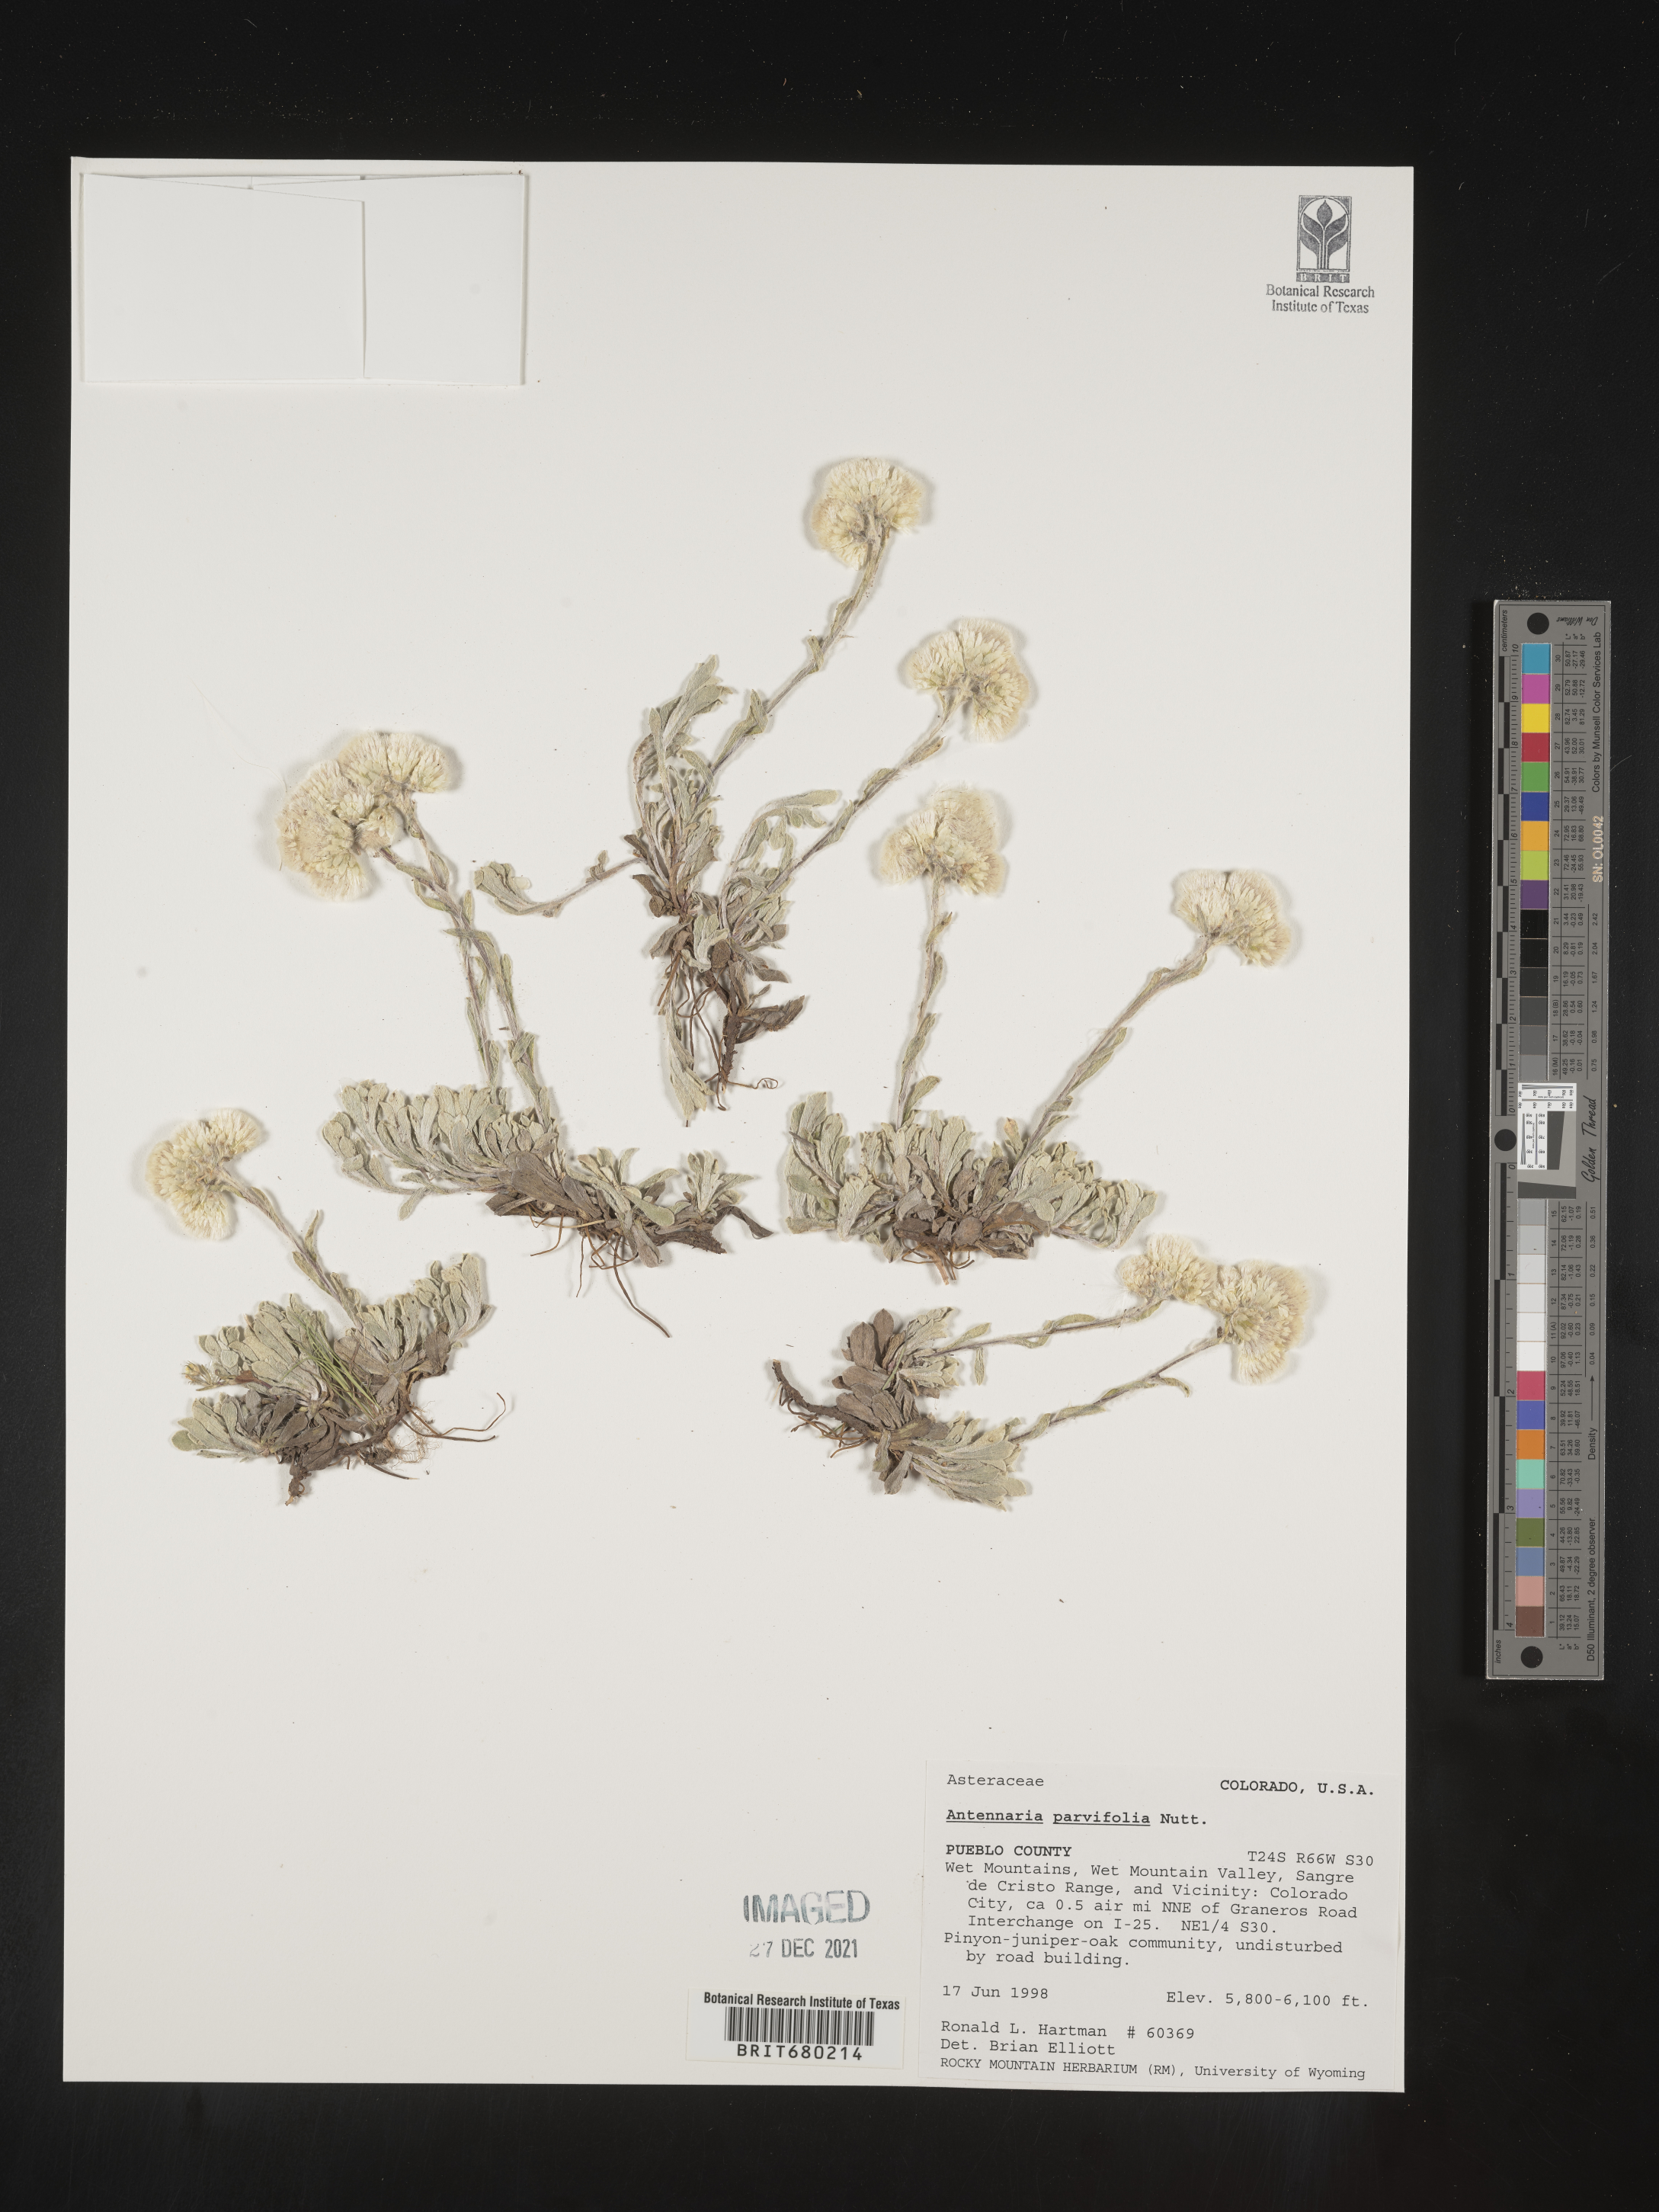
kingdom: Plantae
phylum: Tracheophyta
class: Magnoliopsida
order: Asterales
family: Asteraceae
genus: Antennaria
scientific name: Antennaria plantaginifolia
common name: Plantain-leaved pussytoes
